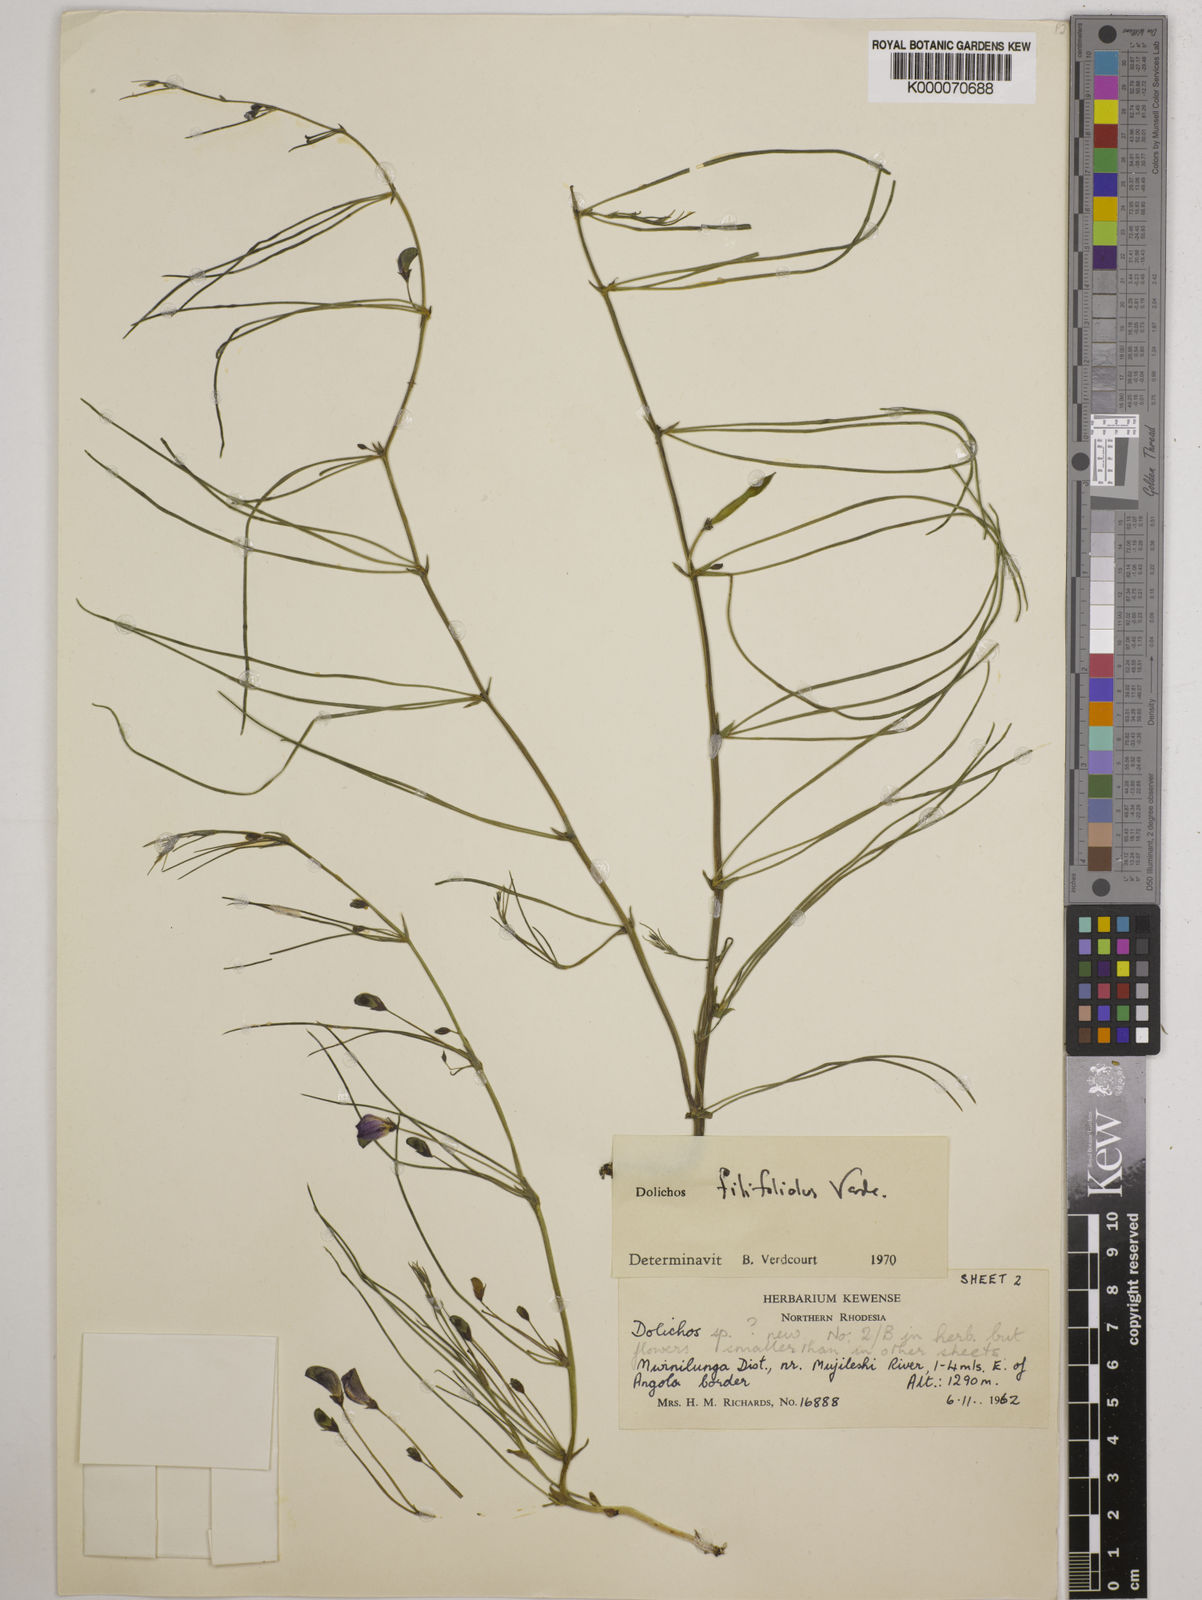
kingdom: Plantae
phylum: Tracheophyta
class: Magnoliopsida
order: Fabales
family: Fabaceae
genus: Dolichos
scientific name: Dolichos filifoliolus
